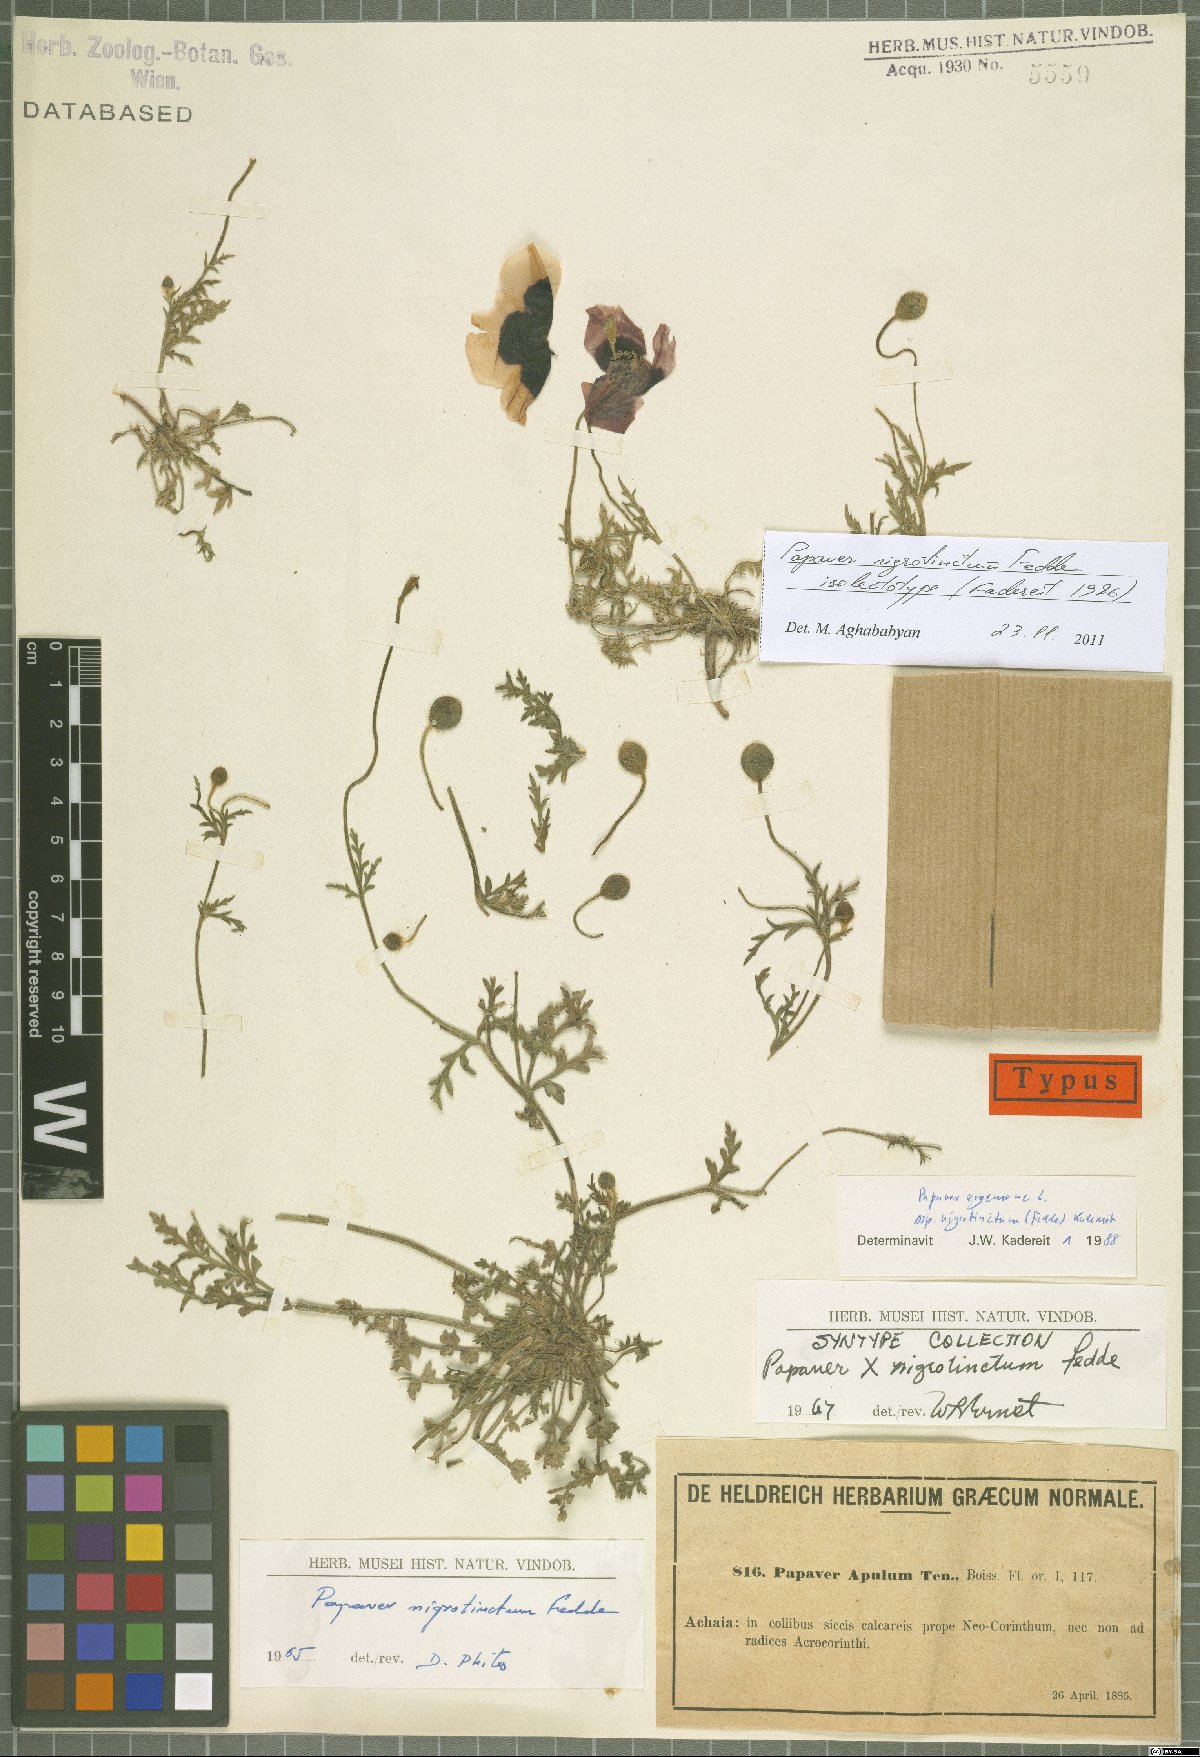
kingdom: Plantae
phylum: Tracheophyta
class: Magnoliopsida
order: Ranunculales
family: Papaveraceae
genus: Roemeria
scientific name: Roemeria nigrotincta
